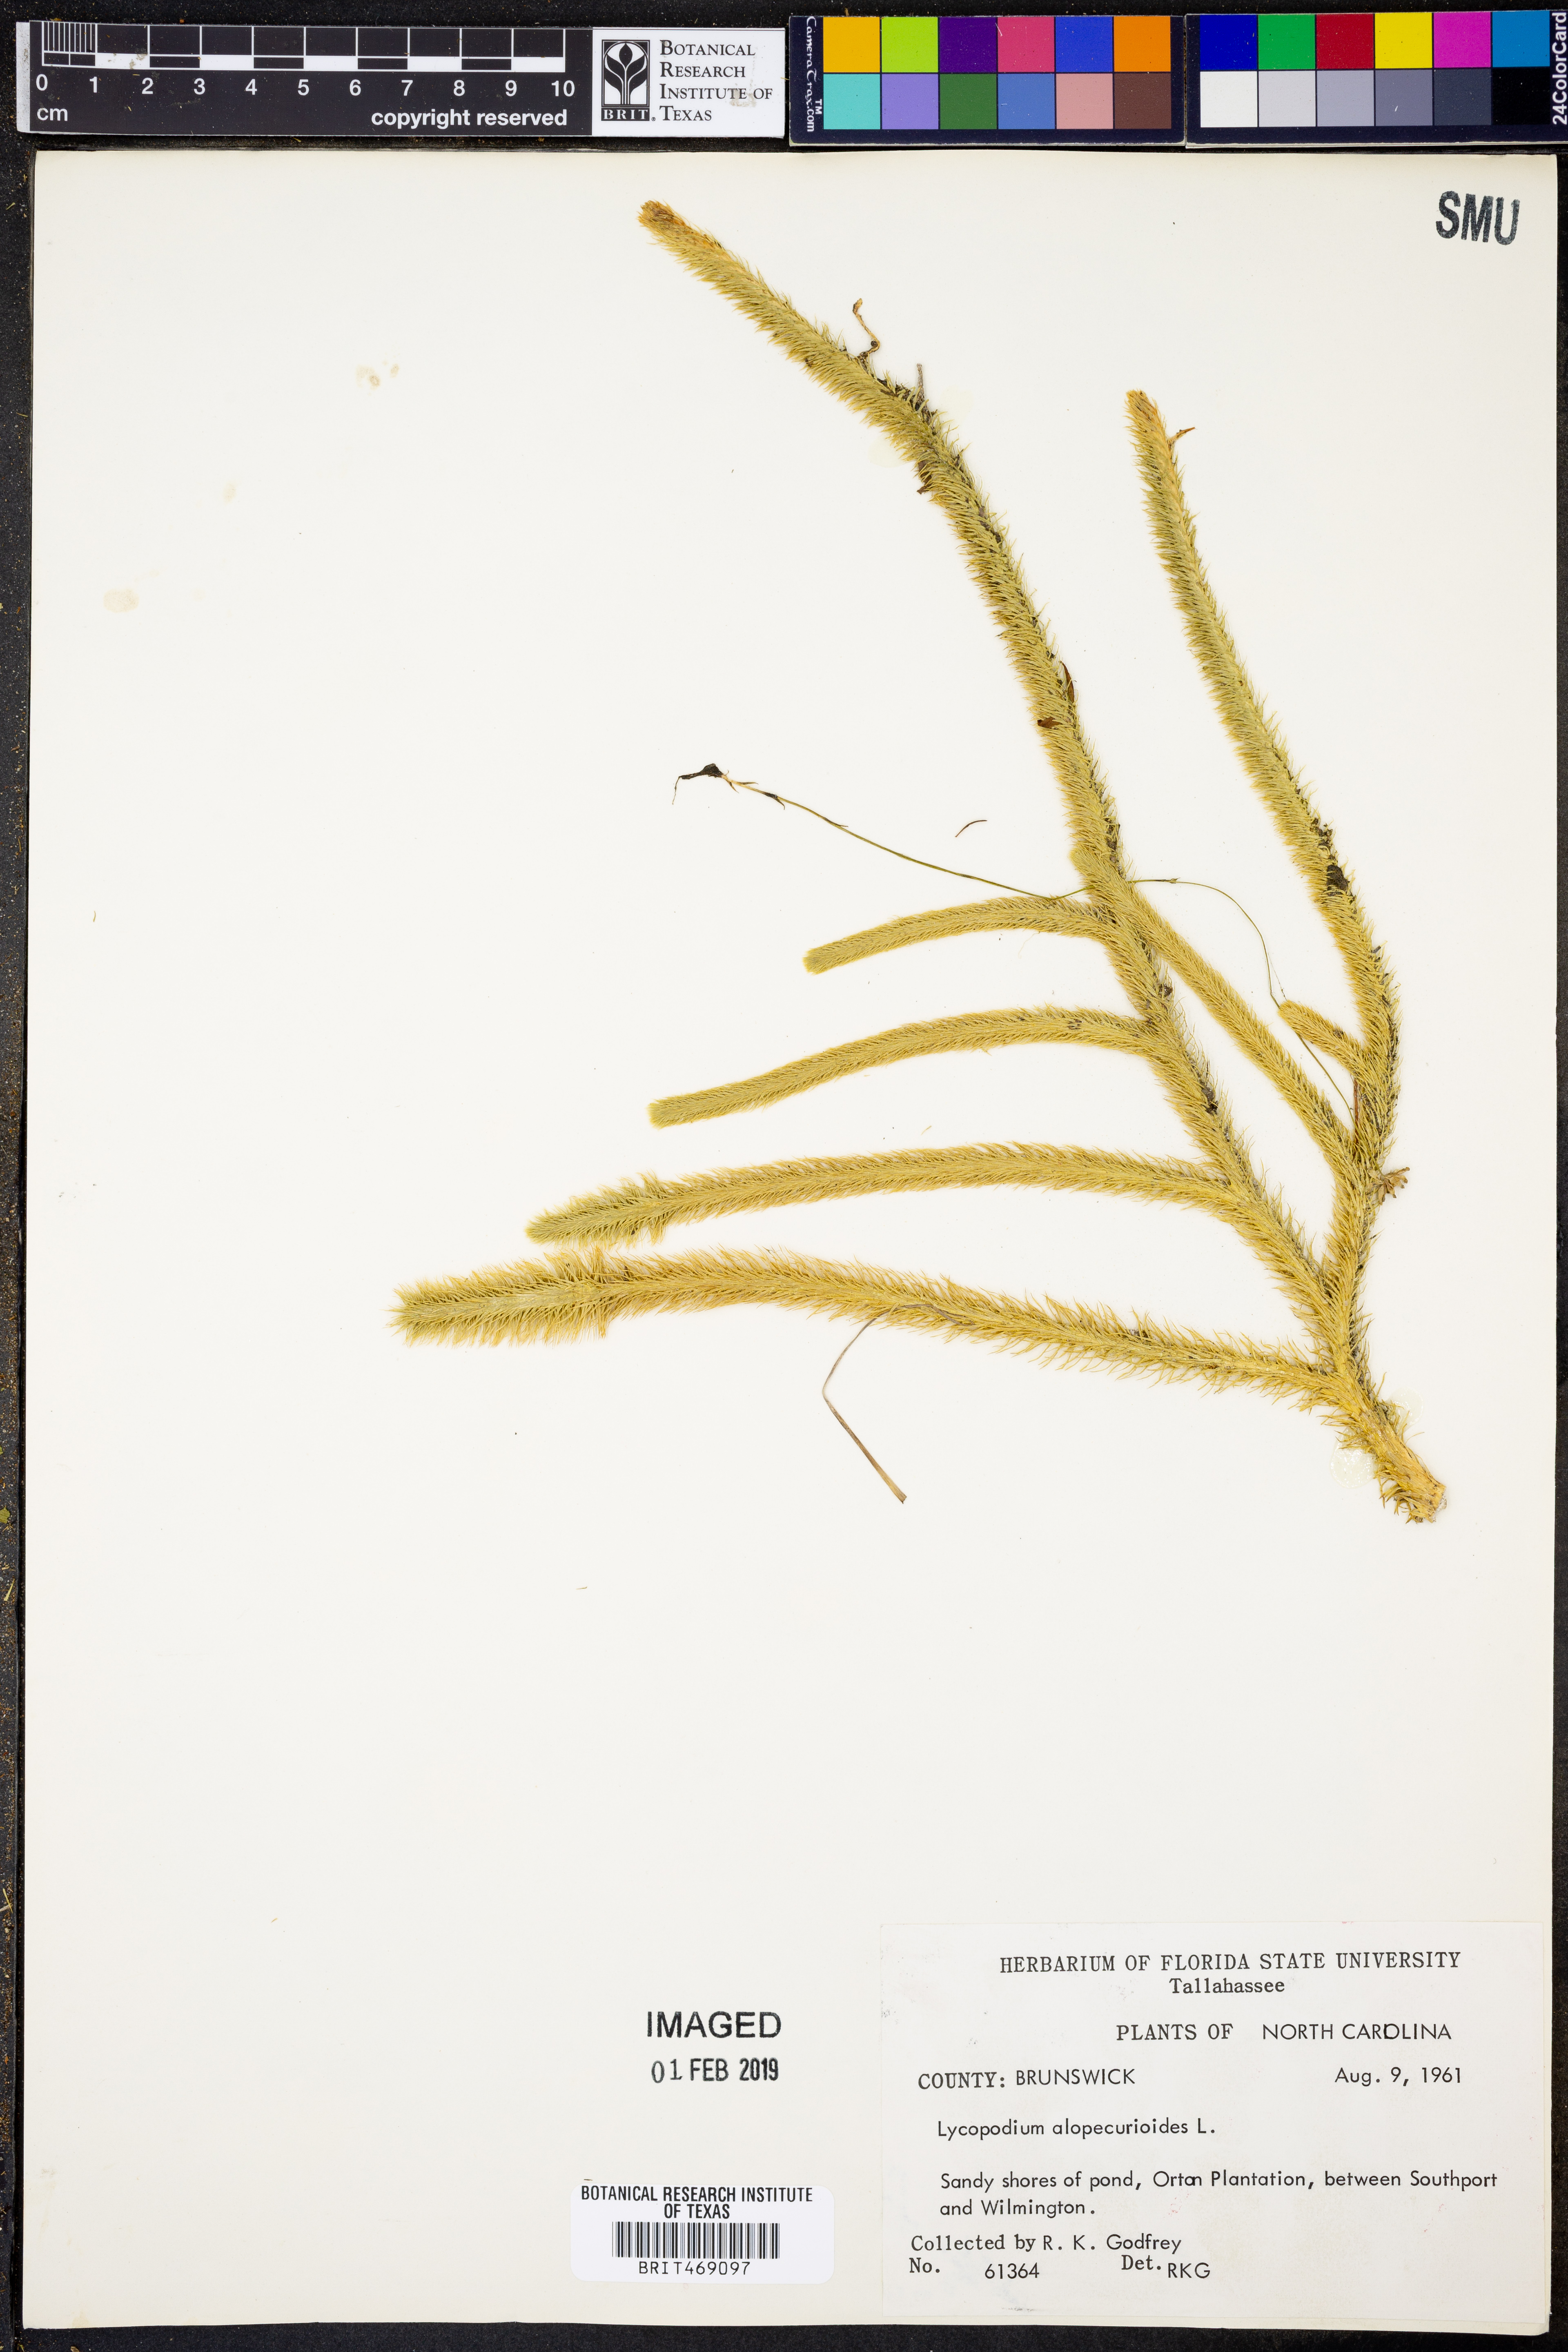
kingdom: Plantae
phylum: Tracheophyta
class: Lycopodiopsida
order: Lycopodiales
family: Lycopodiaceae
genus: Lycopodiella
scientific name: Lycopodiella alopecuroides
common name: Foxtail clubmoss
